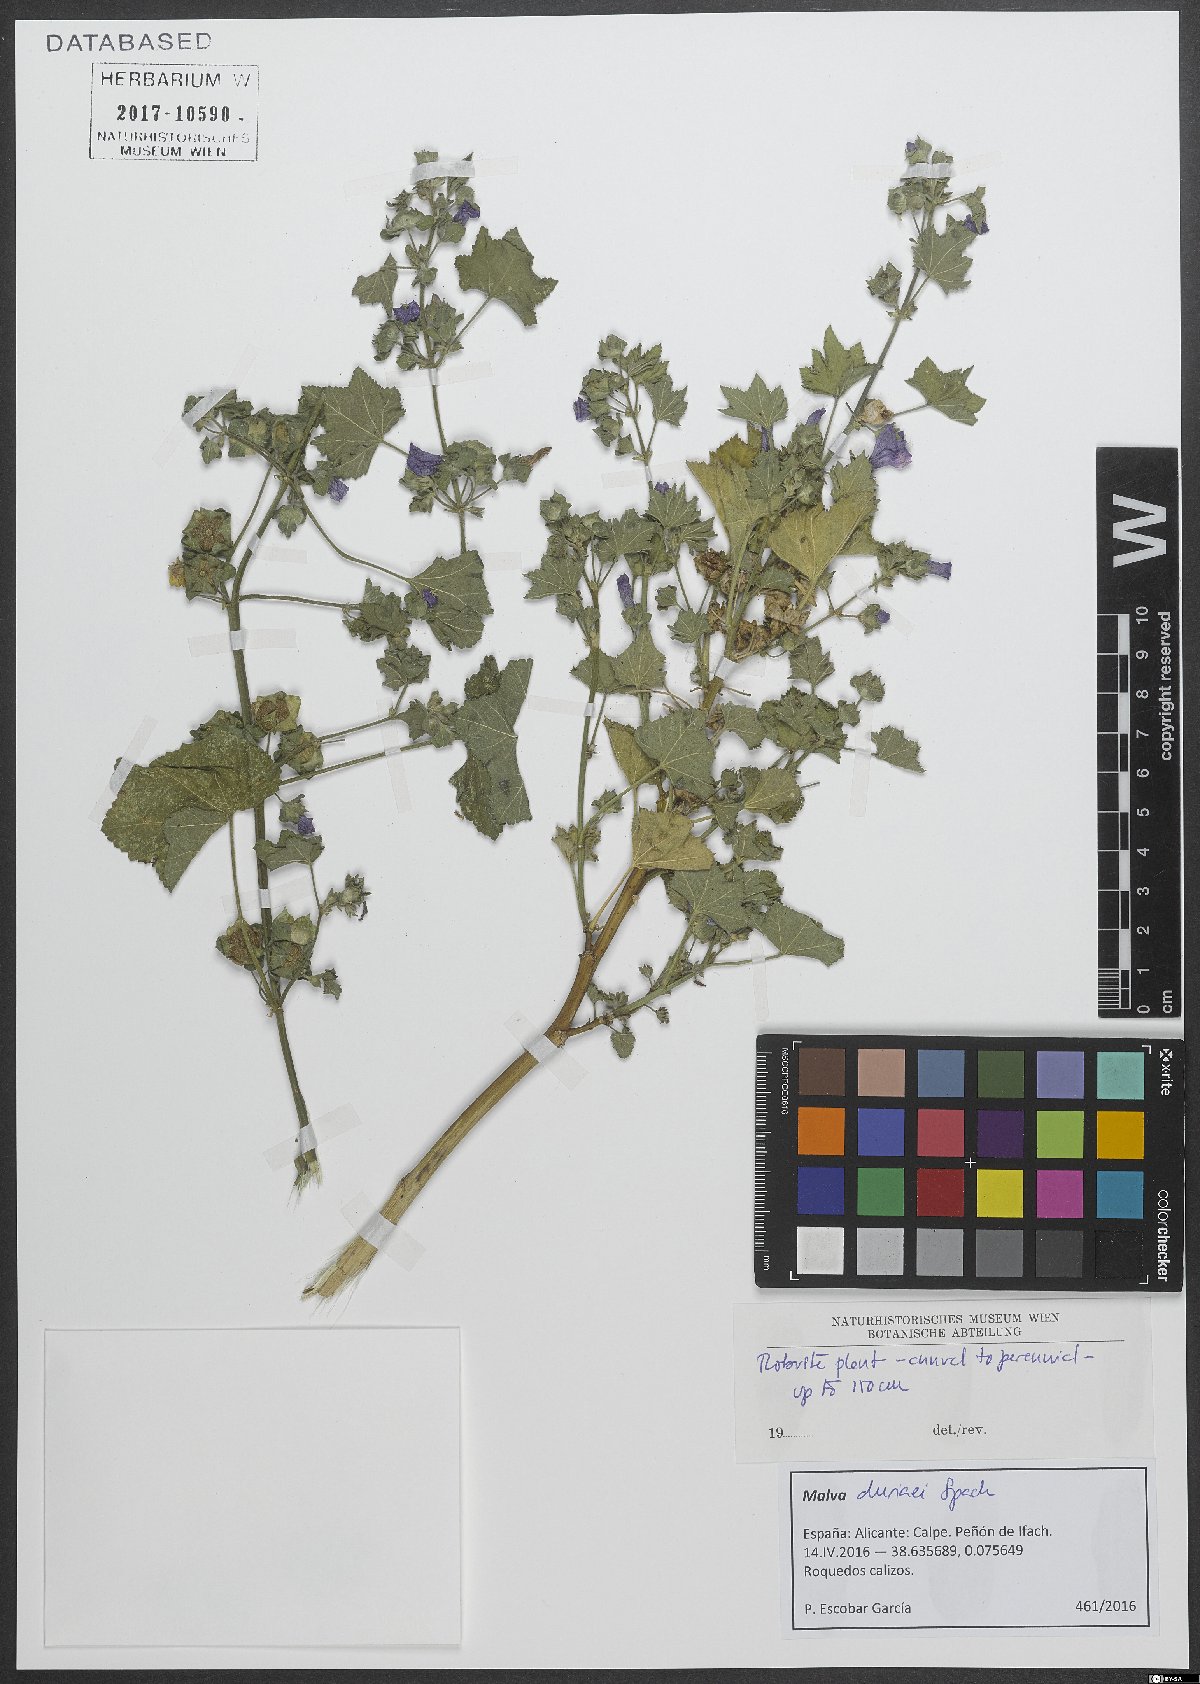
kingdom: Plantae
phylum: Tracheophyta
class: Magnoliopsida
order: Malvales
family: Malvaceae
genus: Malva
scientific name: Malva durieui
